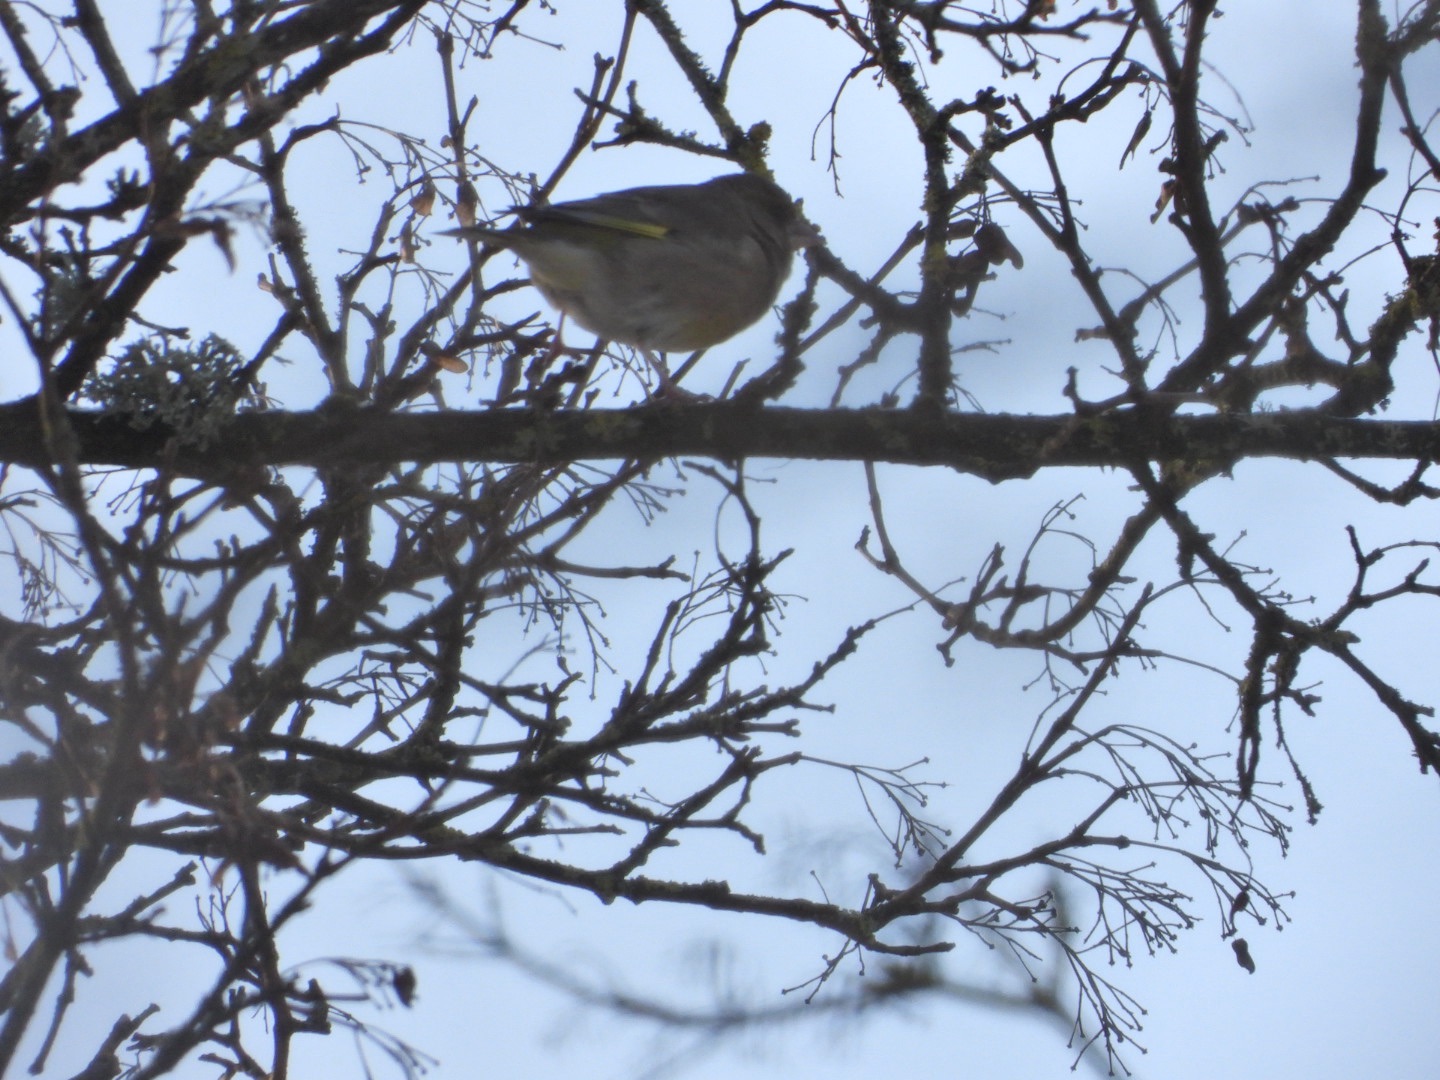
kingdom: Plantae
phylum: Tracheophyta
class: Liliopsida
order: Poales
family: Poaceae
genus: Chloris
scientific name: Chloris chloris
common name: Grønirisk
